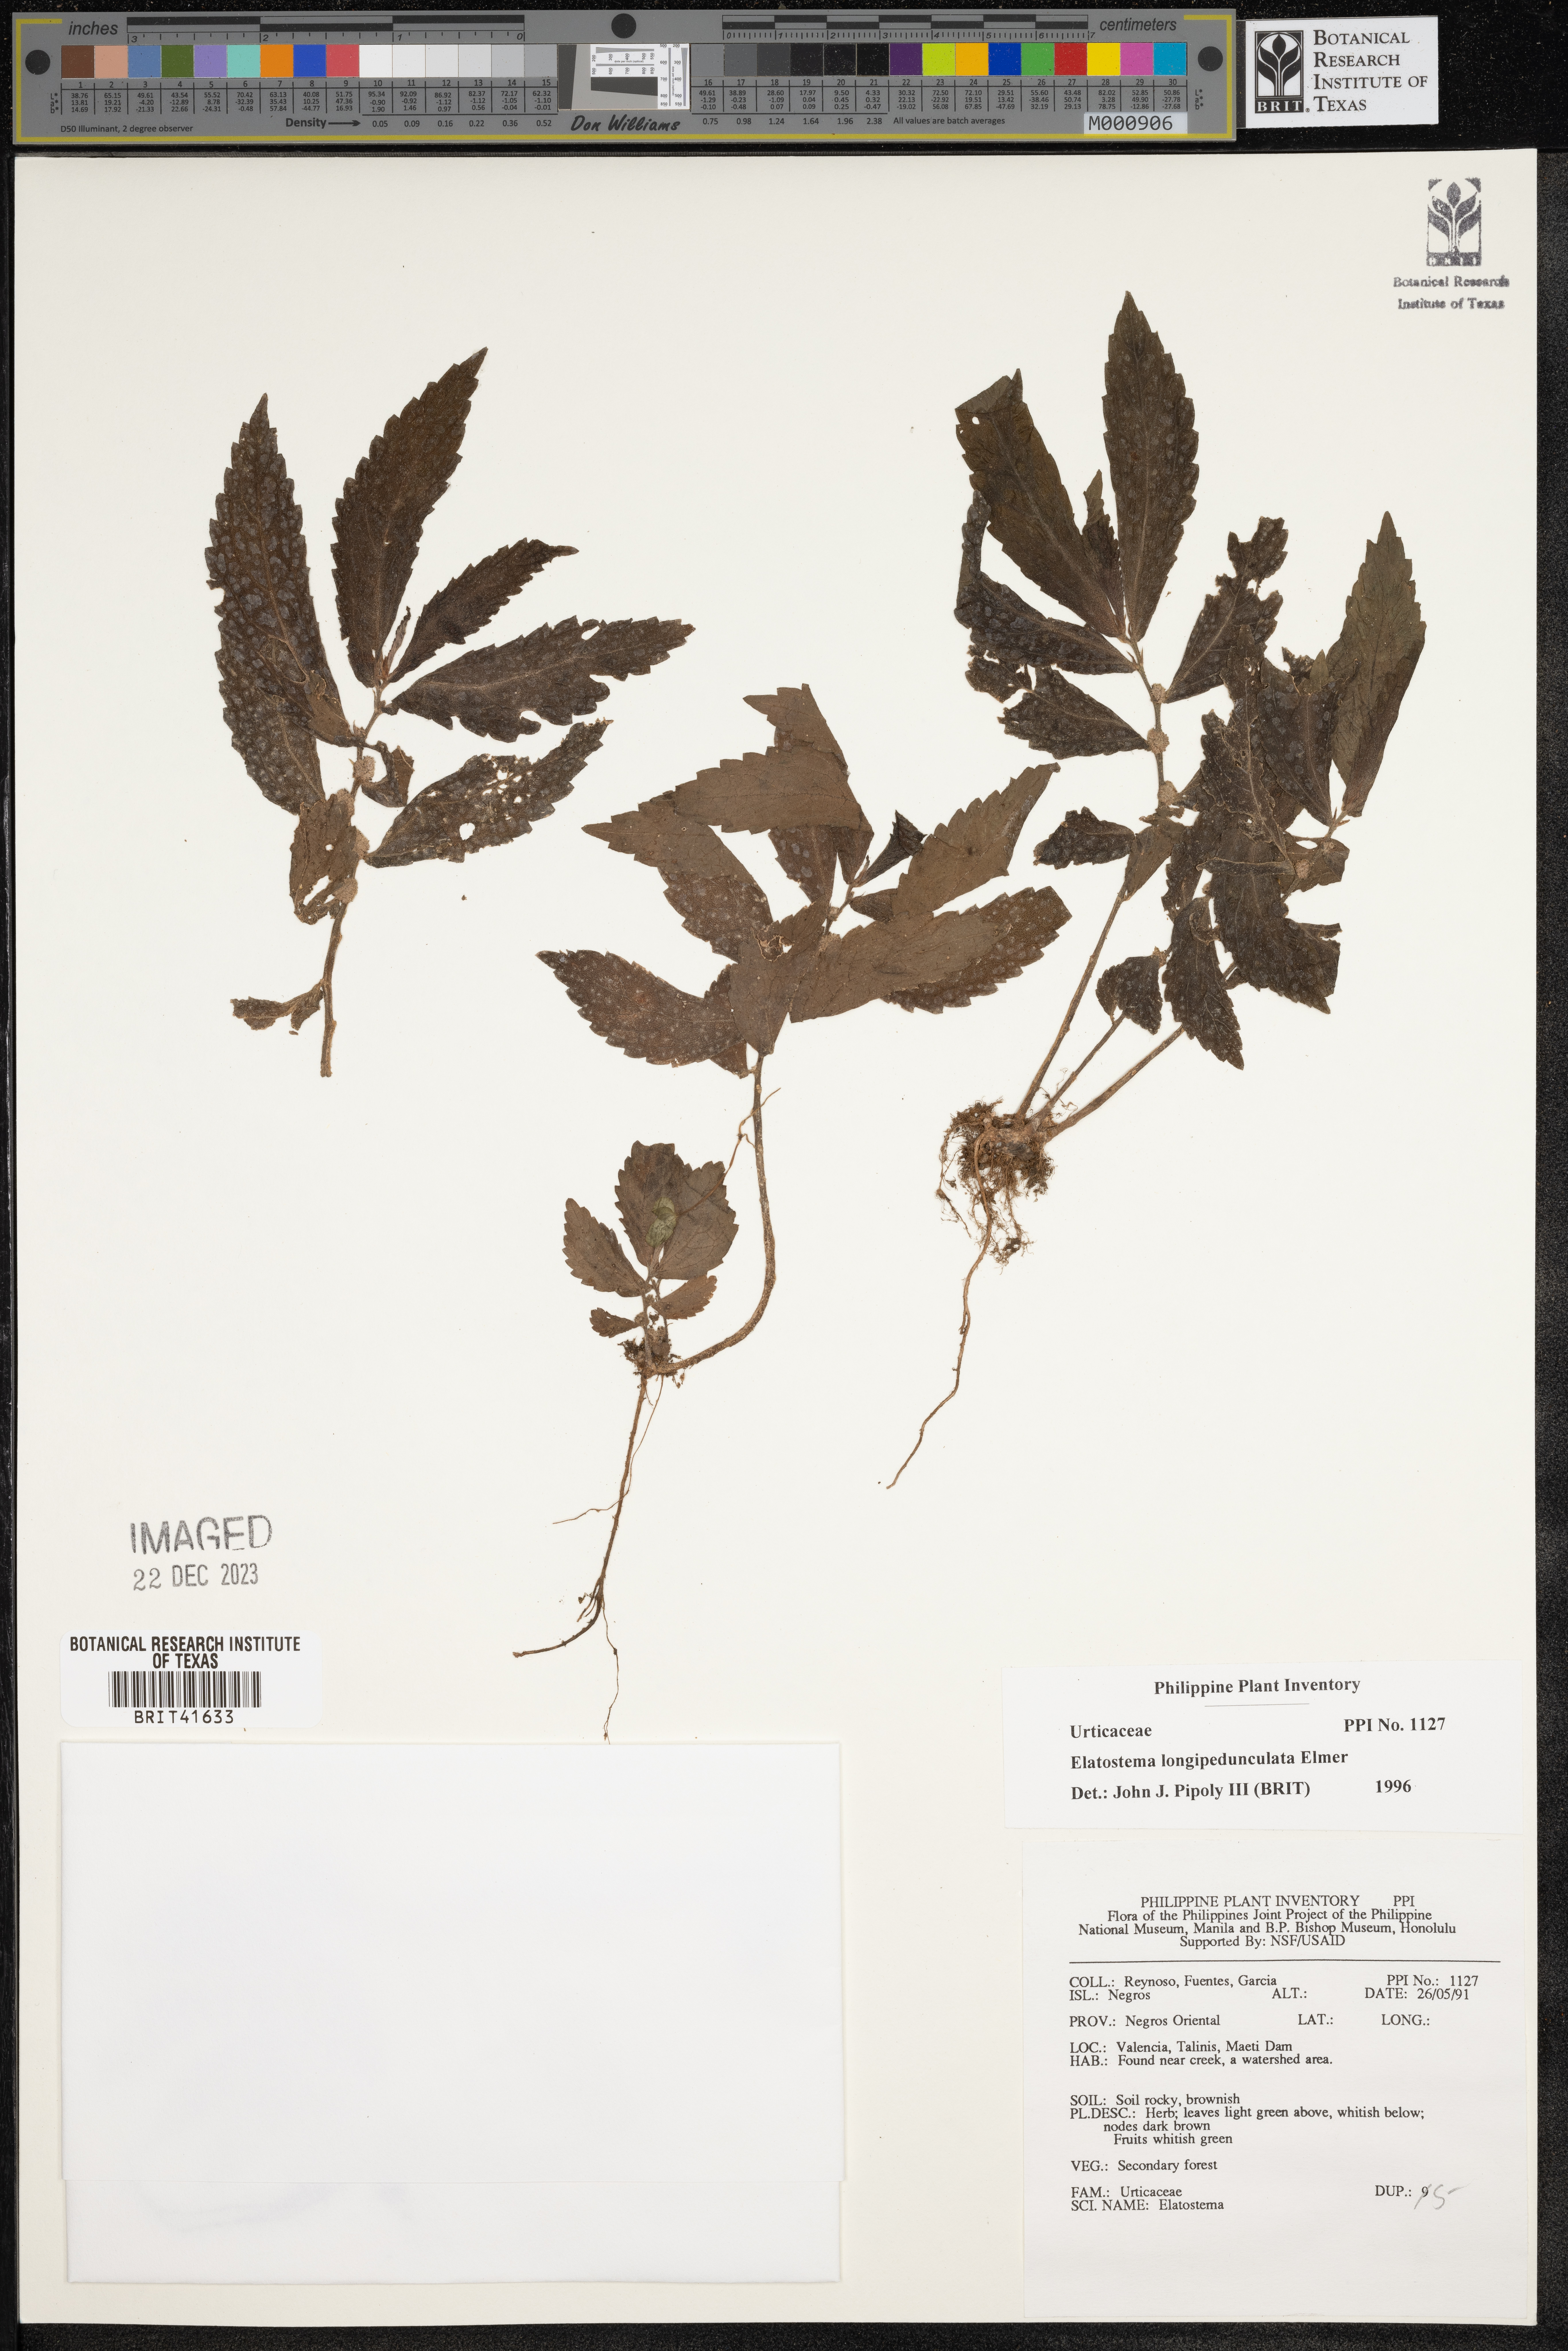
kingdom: Plantae
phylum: Tracheophyta
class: Magnoliopsida
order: Rosales
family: Urticaceae
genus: Elatostema
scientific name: Elatostema longipedunculatum
